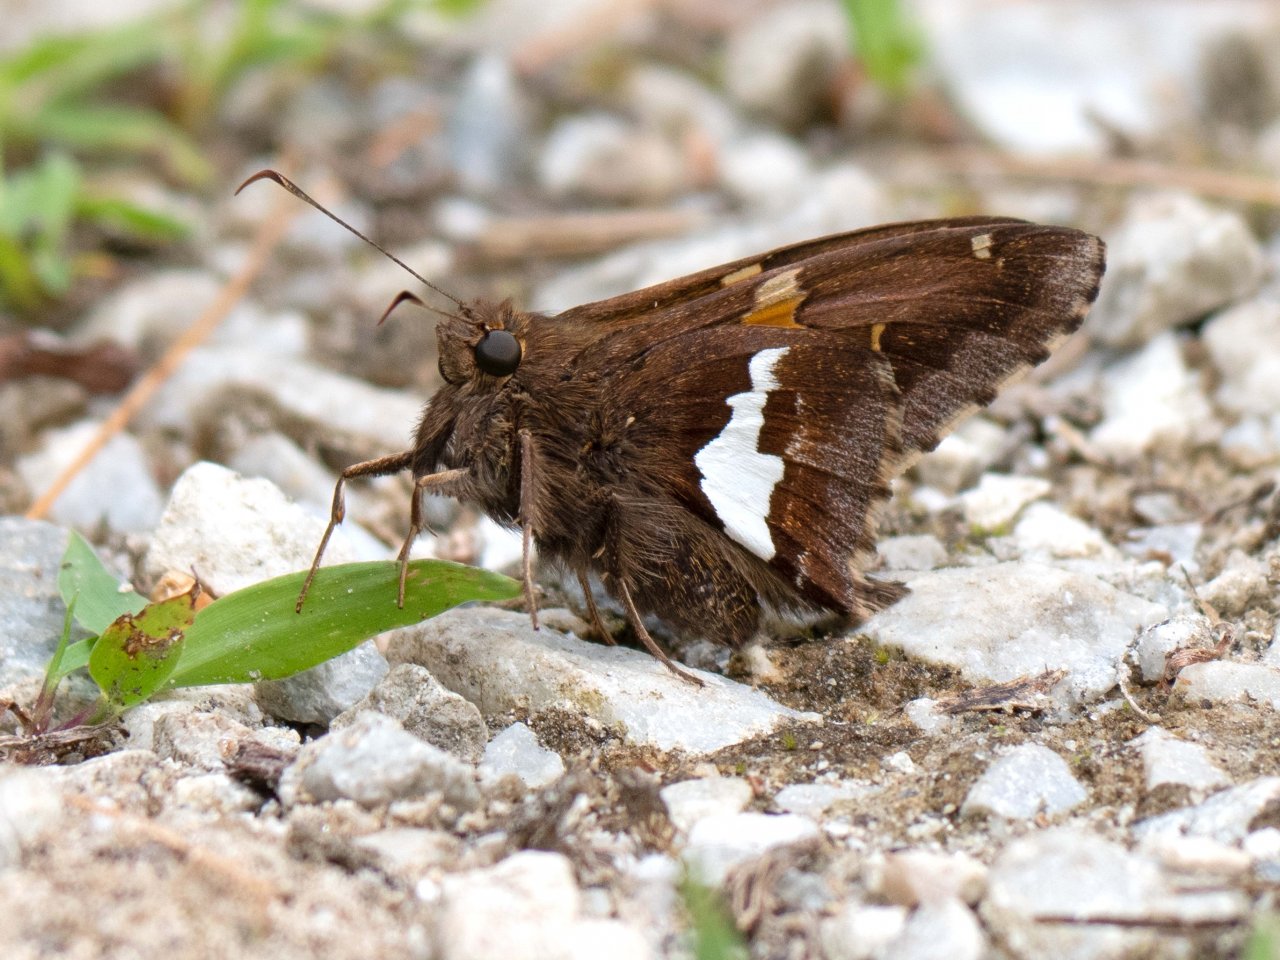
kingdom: Animalia
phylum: Arthropoda
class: Insecta
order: Lepidoptera
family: Hesperiidae
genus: Epargyreus
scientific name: Epargyreus clarus
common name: Silver-spotted Skipper
